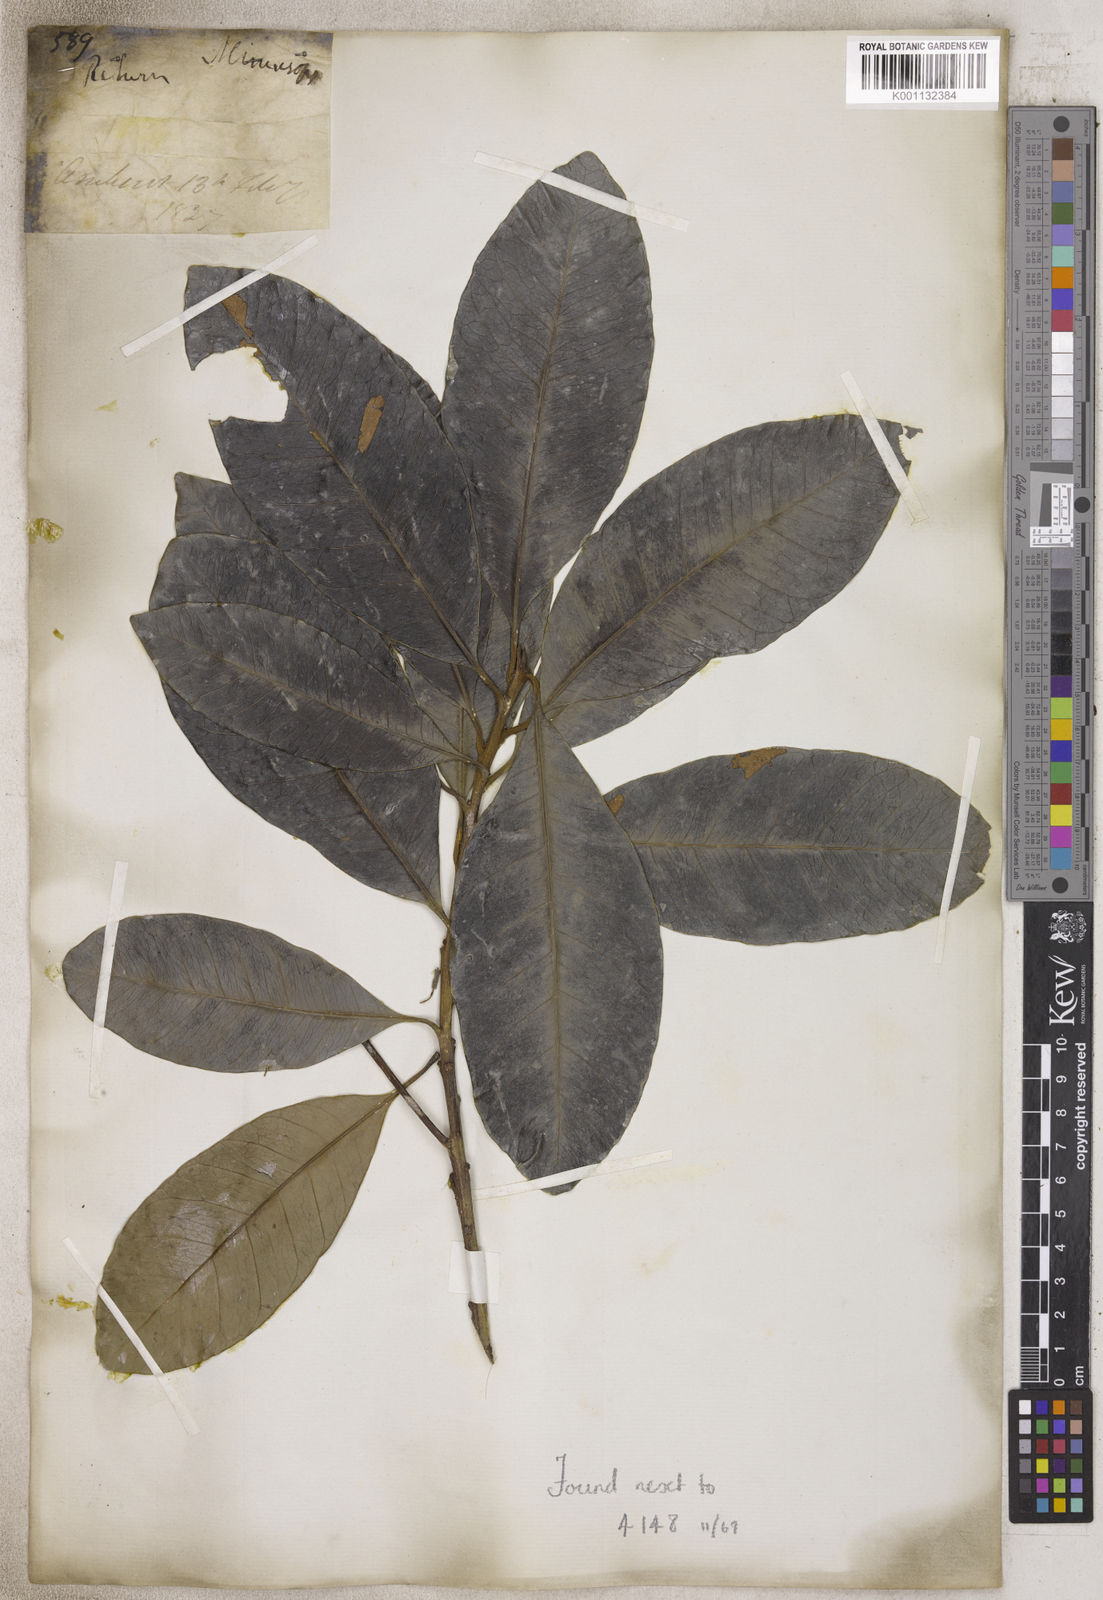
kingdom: Plantae
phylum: Tracheophyta
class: Magnoliopsida
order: Ericales
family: Sapotaceae
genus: Mimusops
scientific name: Mimusops
